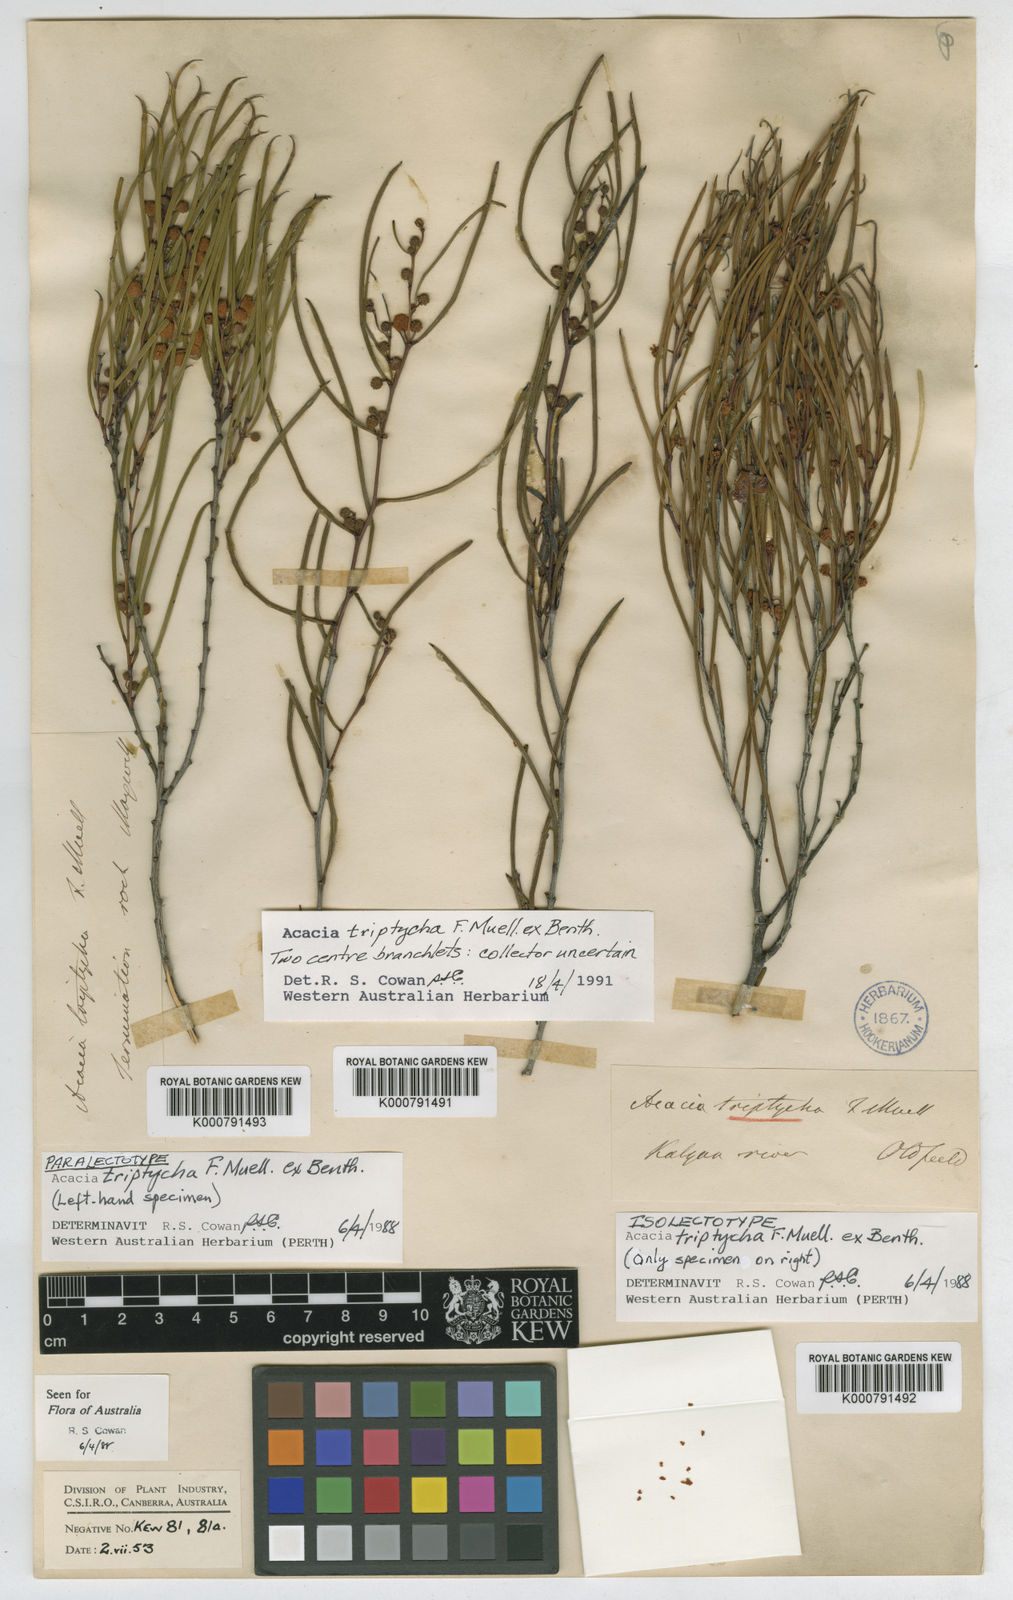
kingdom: Plantae
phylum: Tracheophyta
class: Magnoliopsida
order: Fabales
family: Fabaceae
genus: Acacia
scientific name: Acacia triptycha
